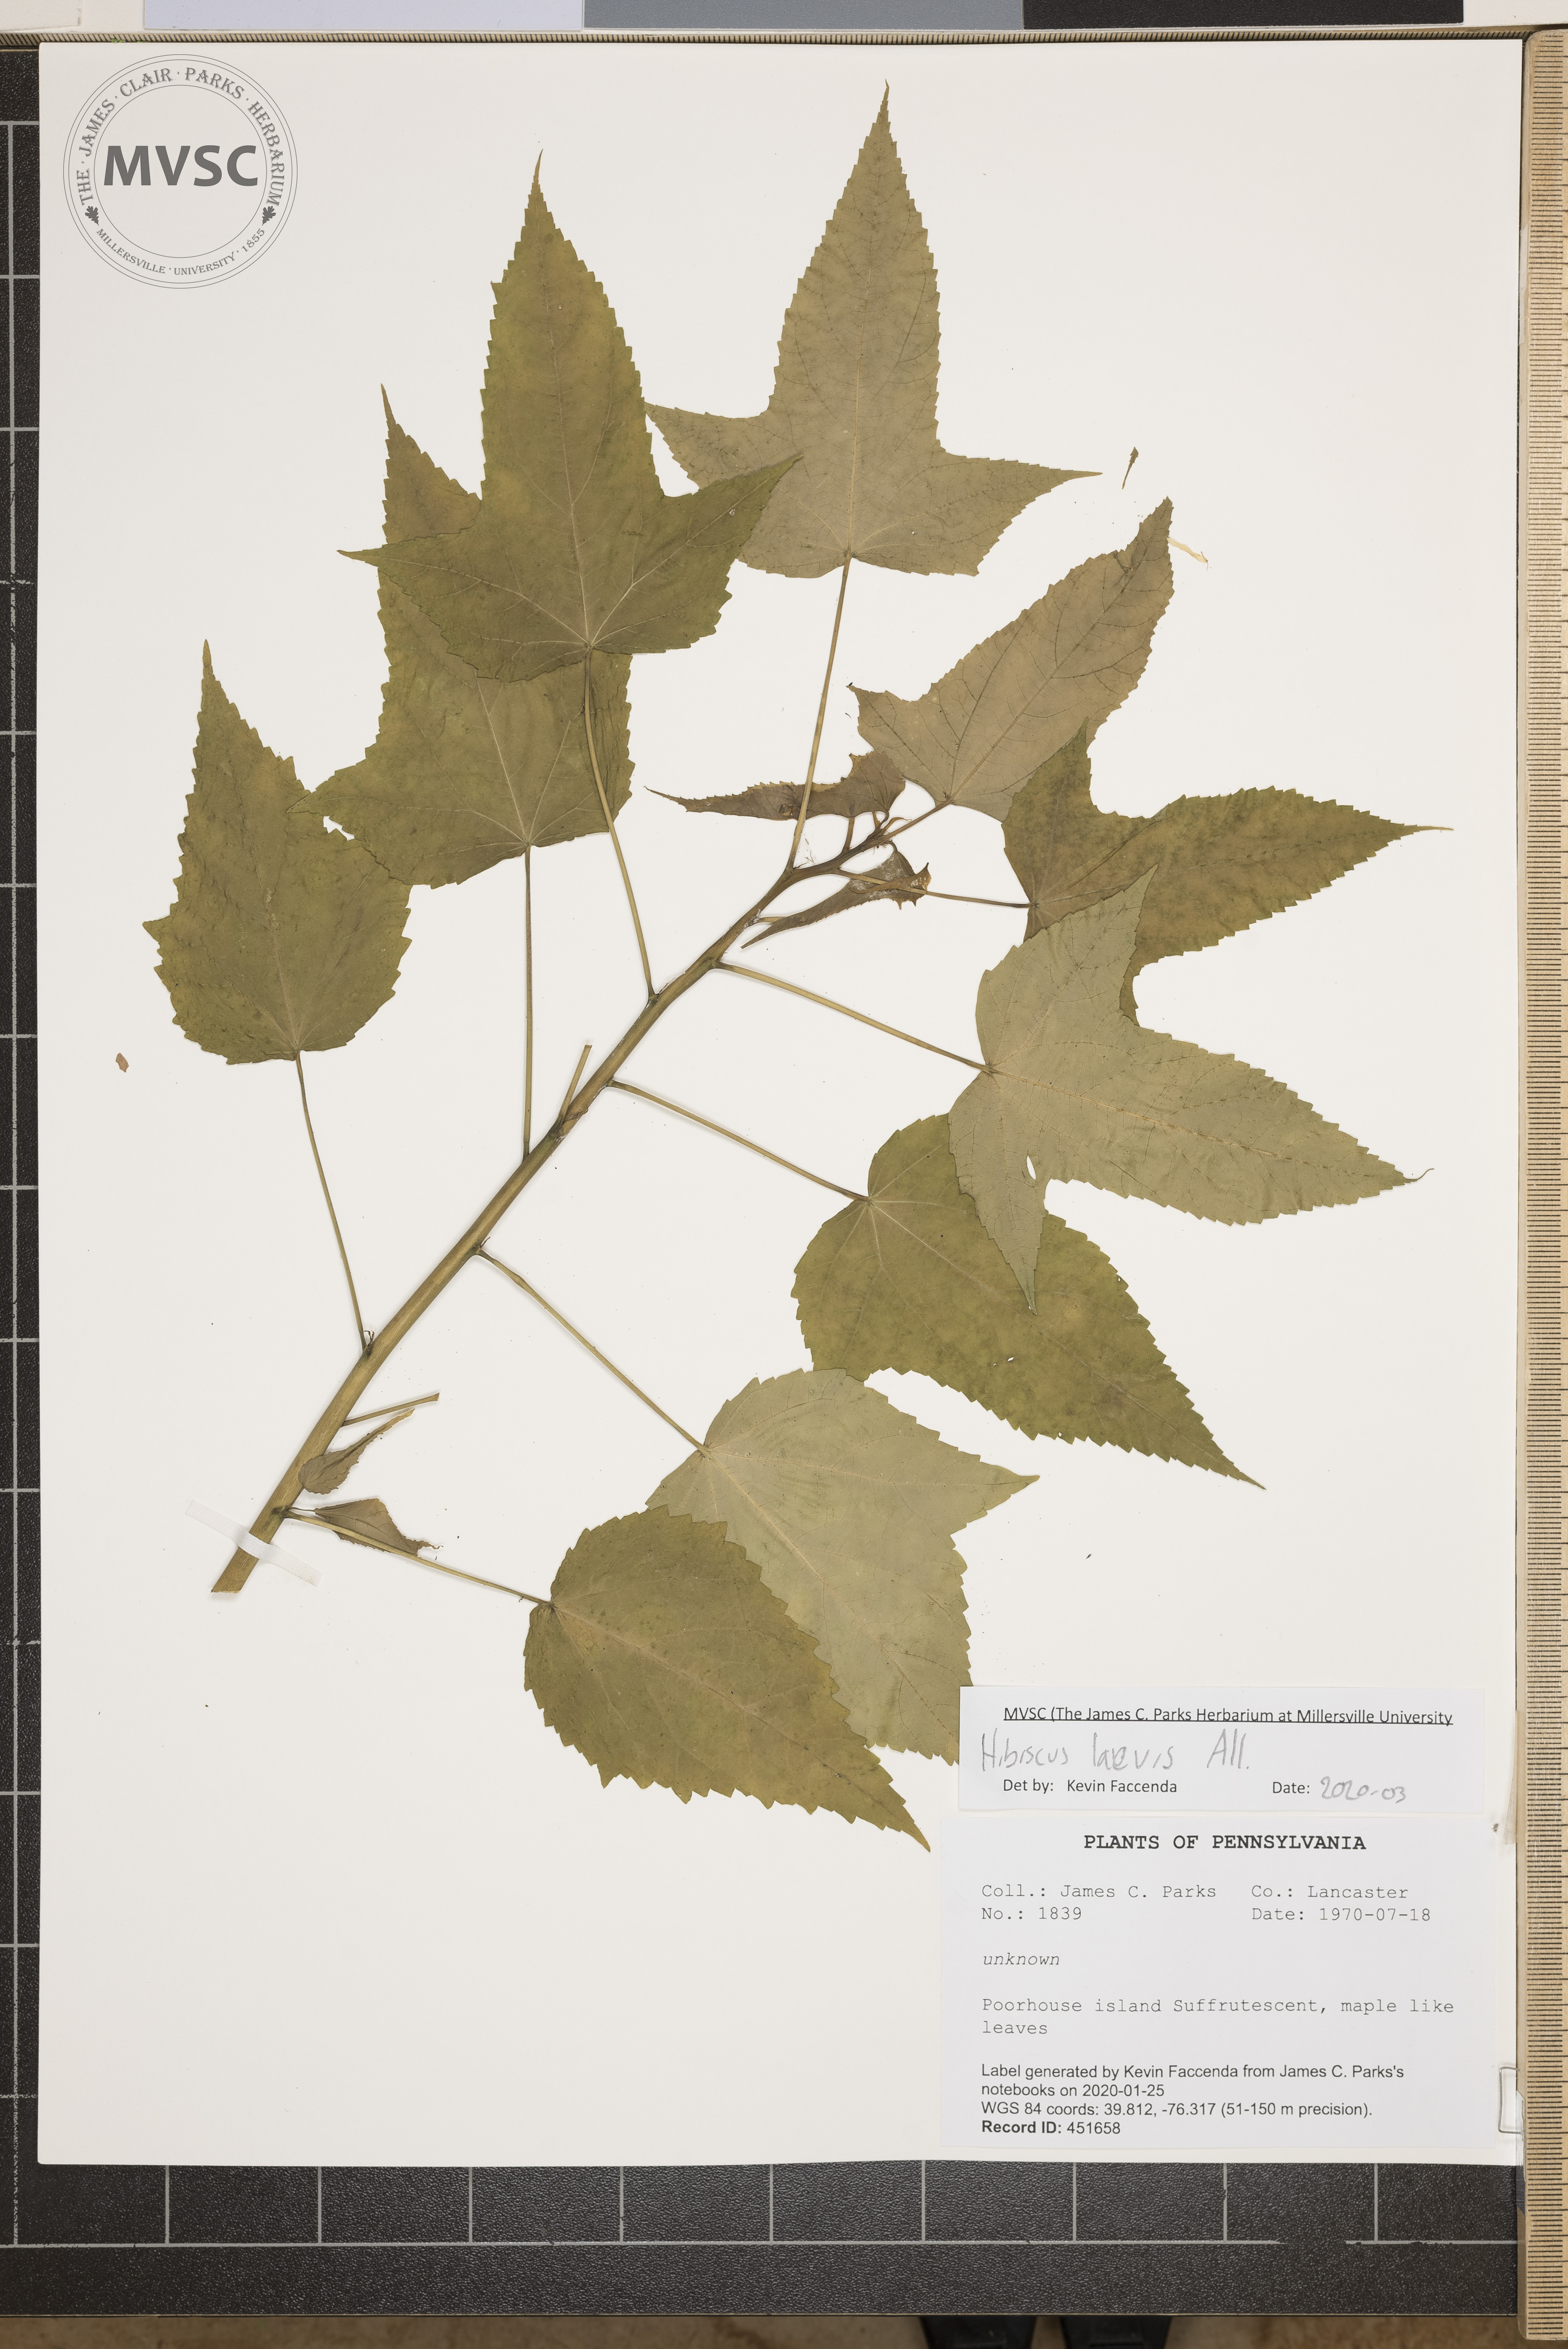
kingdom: Plantae
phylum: Tracheophyta
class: Magnoliopsida
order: Malvales
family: Malvaceae
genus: Hibiscus
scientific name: Hibiscus laevis
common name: Scarlet rose-mallow
